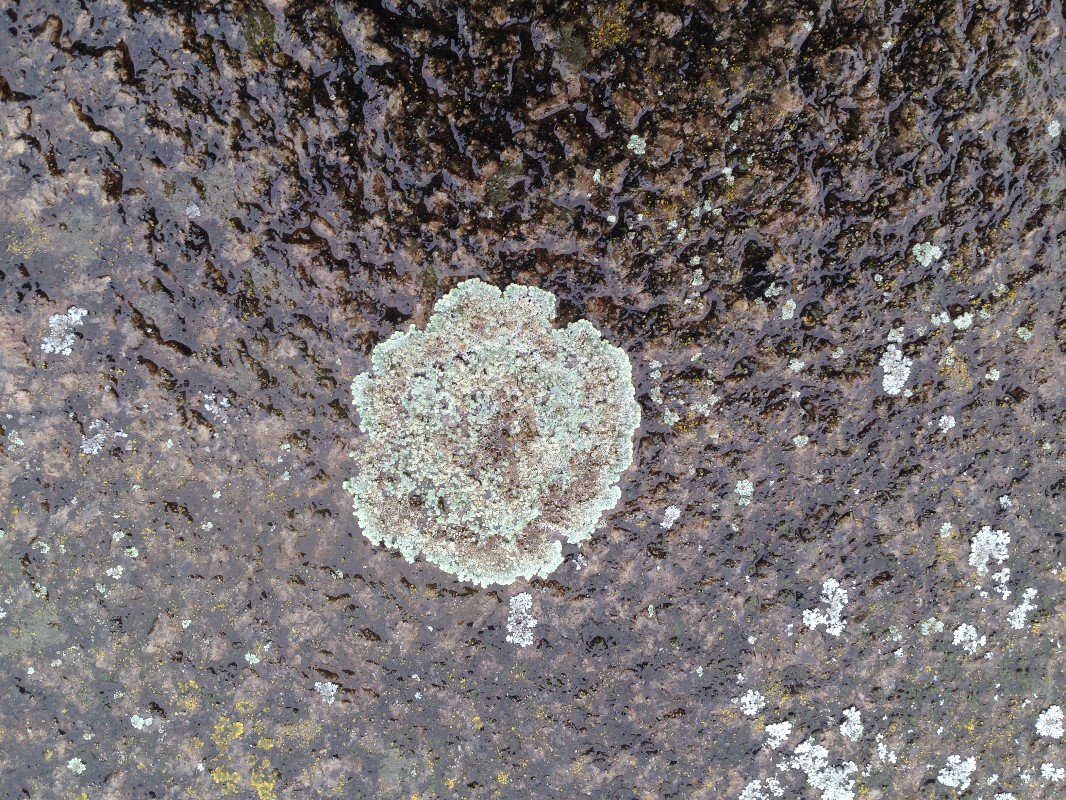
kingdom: Fungi
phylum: Ascomycota
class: Lecanoromycetes
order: Lecanorales
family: Lecanoraceae
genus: Protoparmeliopsis
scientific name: Protoparmeliopsis muralis
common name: randfliget kantskivelav
